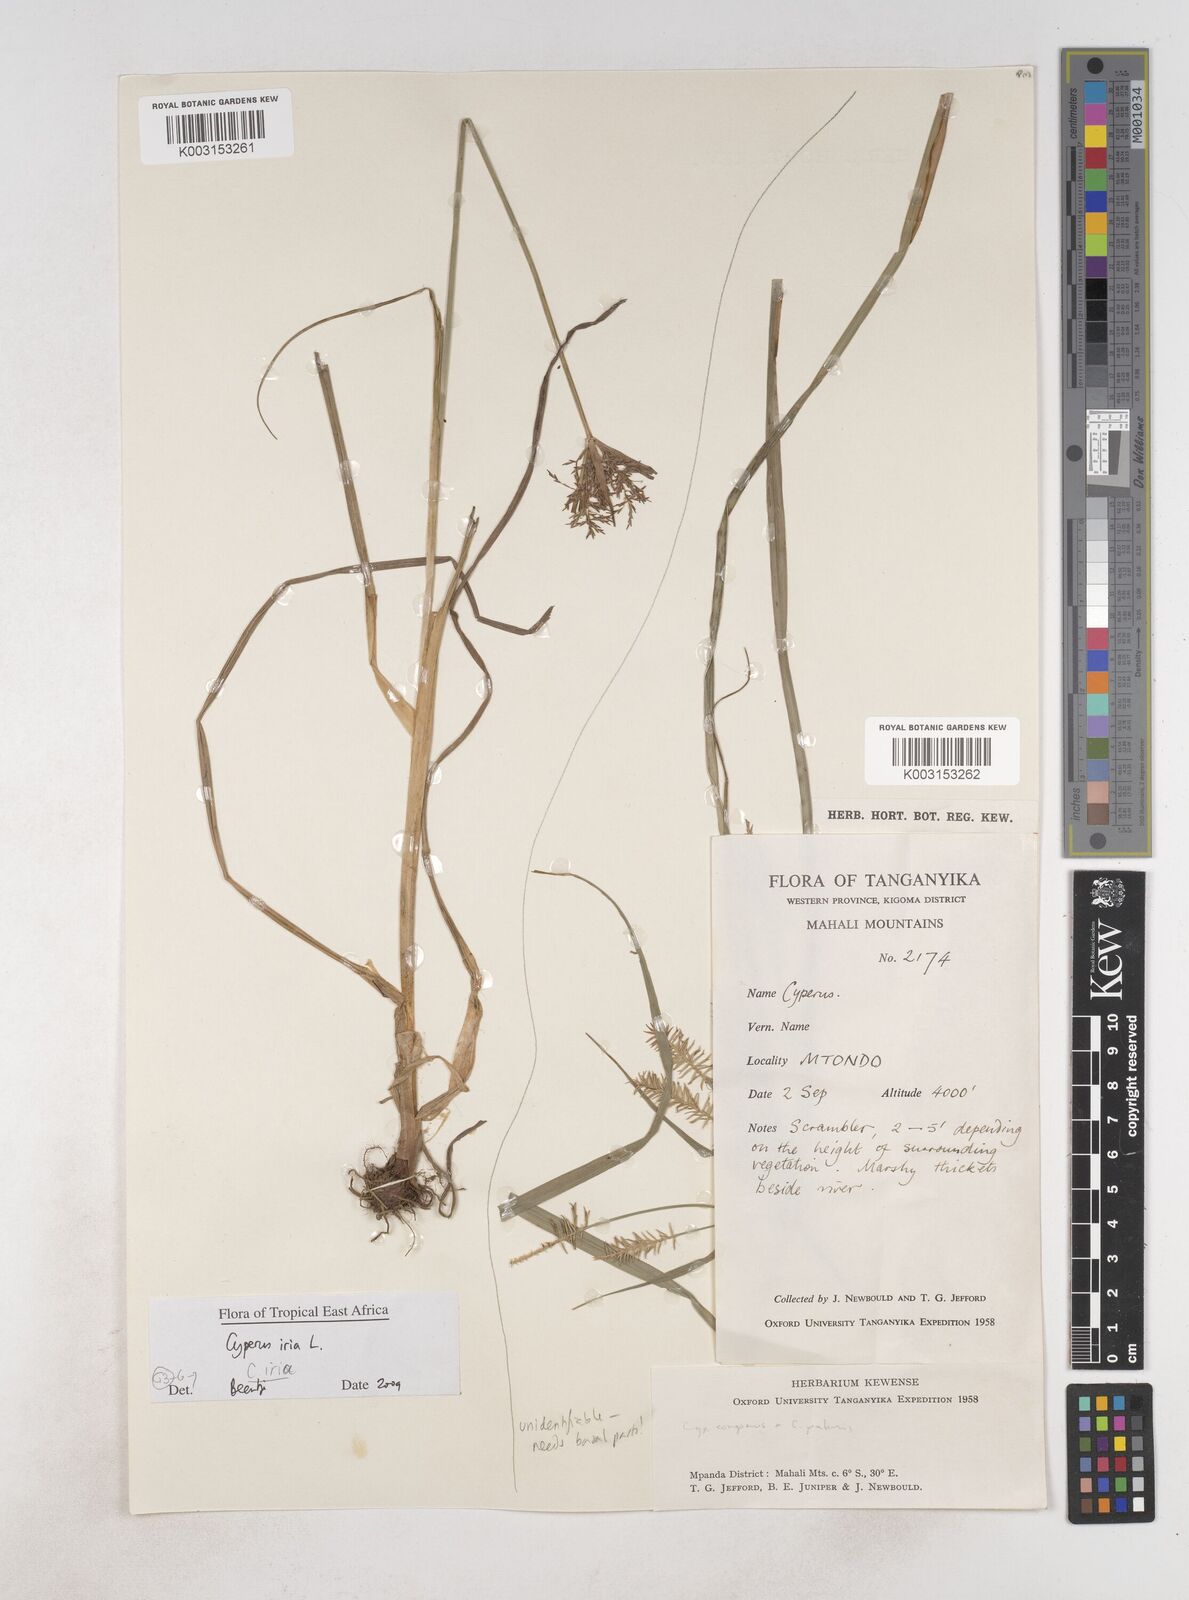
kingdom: Plantae
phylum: Tracheophyta
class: Liliopsida
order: Poales
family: Cyperaceae
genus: Cyperus
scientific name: Cyperus iria
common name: Ricefield flatsedge
